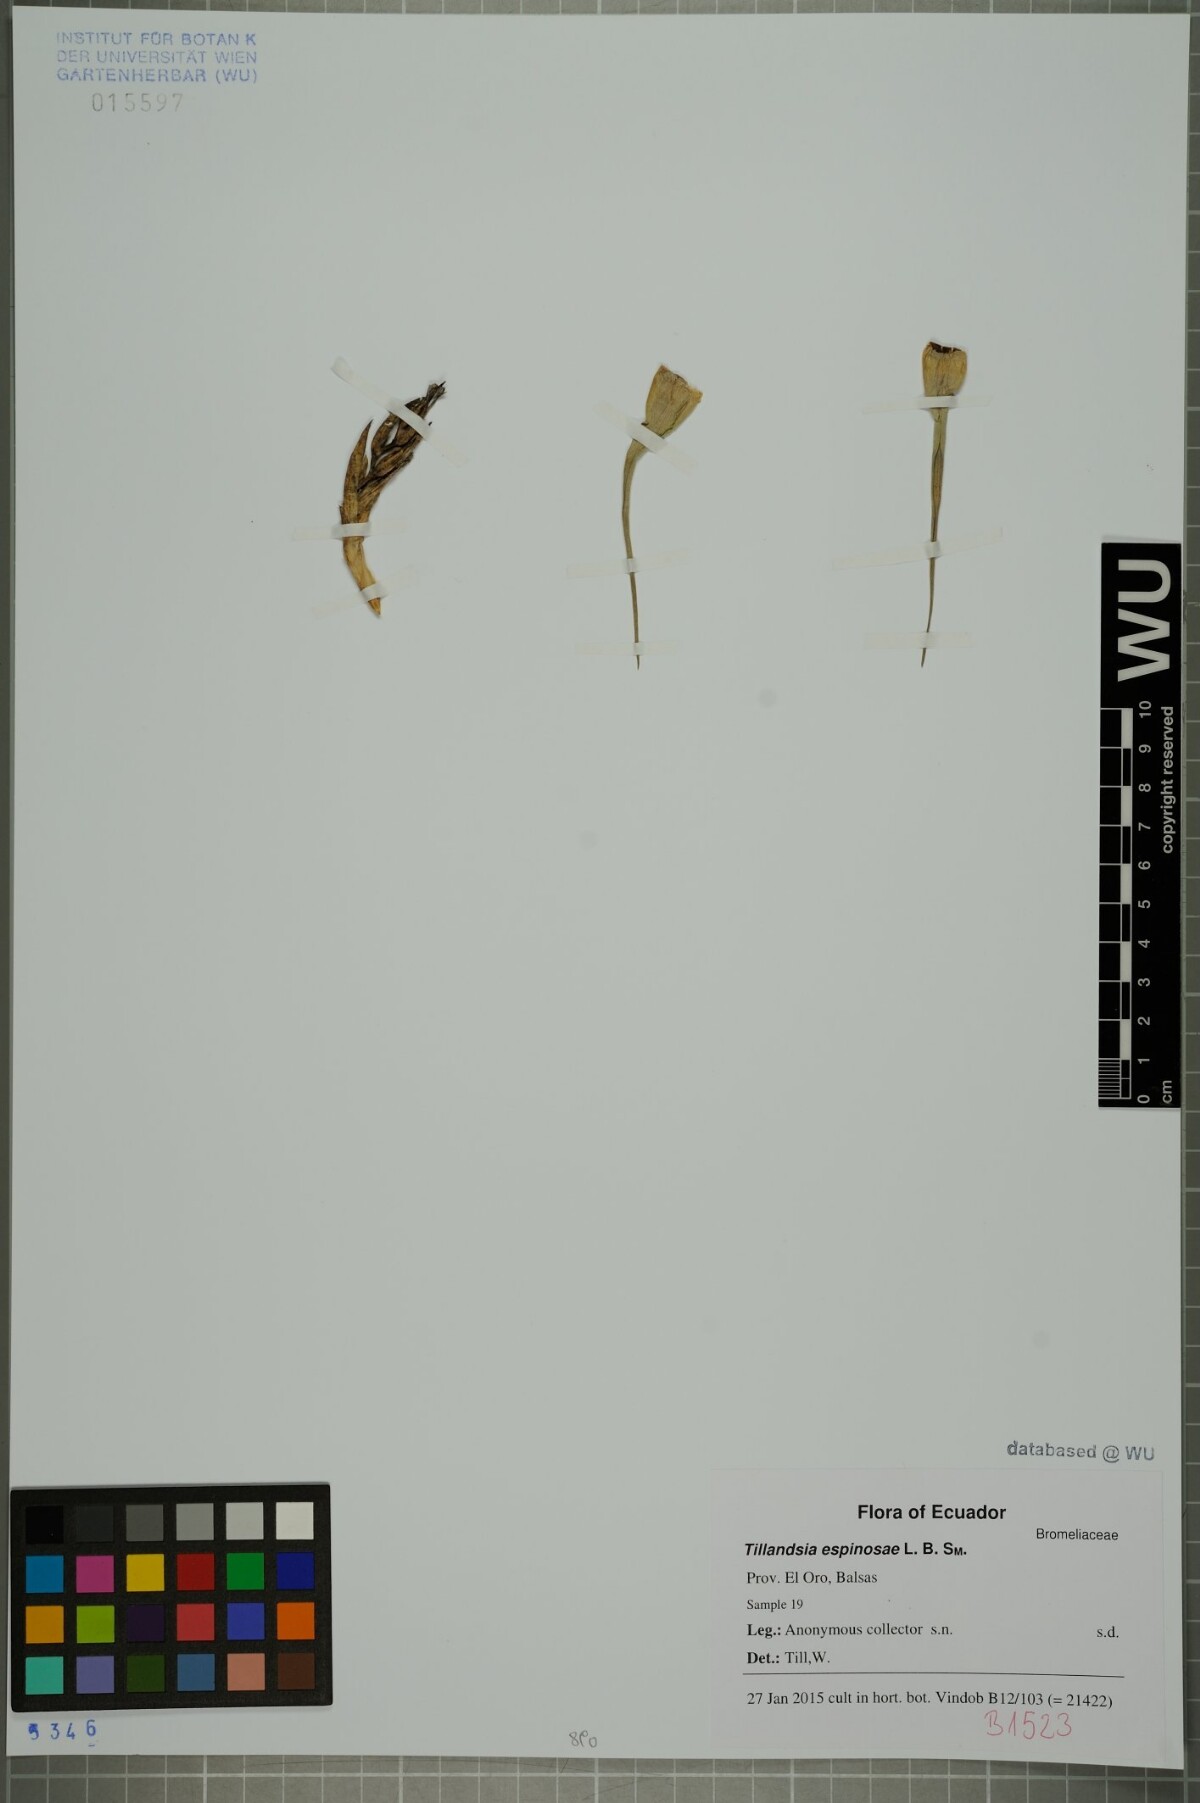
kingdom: Plantae
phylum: Tracheophyta
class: Liliopsida
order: Poales
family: Bromeliaceae
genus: Tillandsia
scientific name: Tillandsia espinosae
